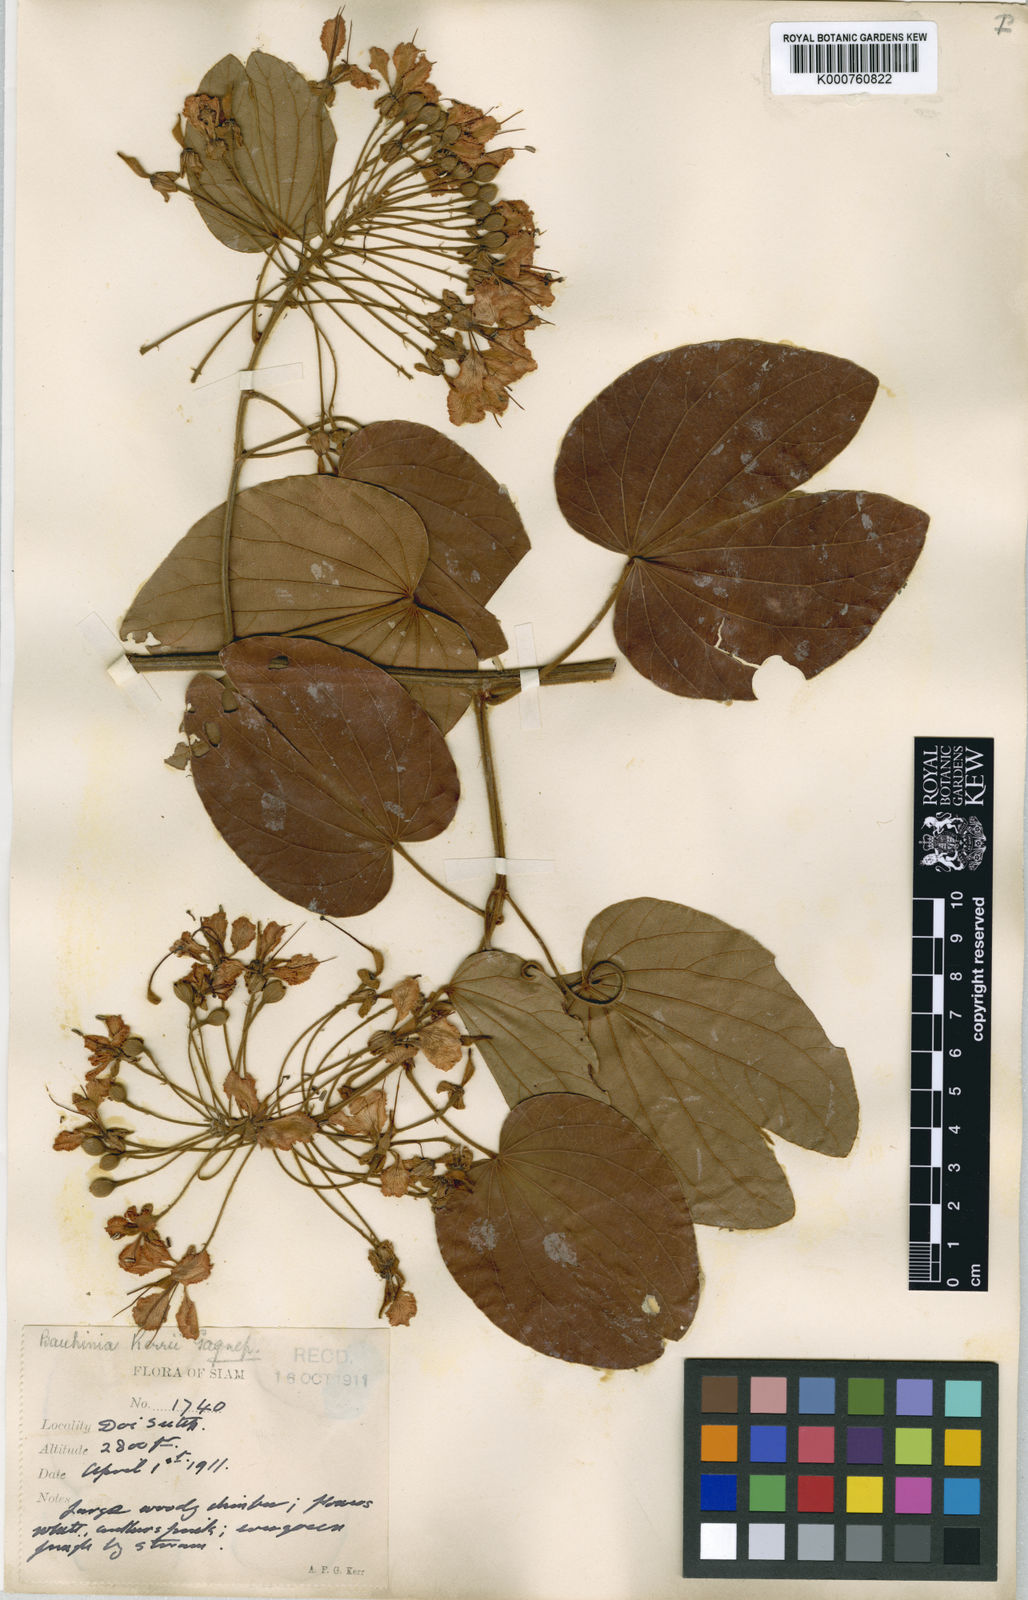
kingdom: Plantae
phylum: Tracheophyta
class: Magnoliopsida
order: Fabales
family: Fabaceae
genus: Phanera
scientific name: Phanera ornata
